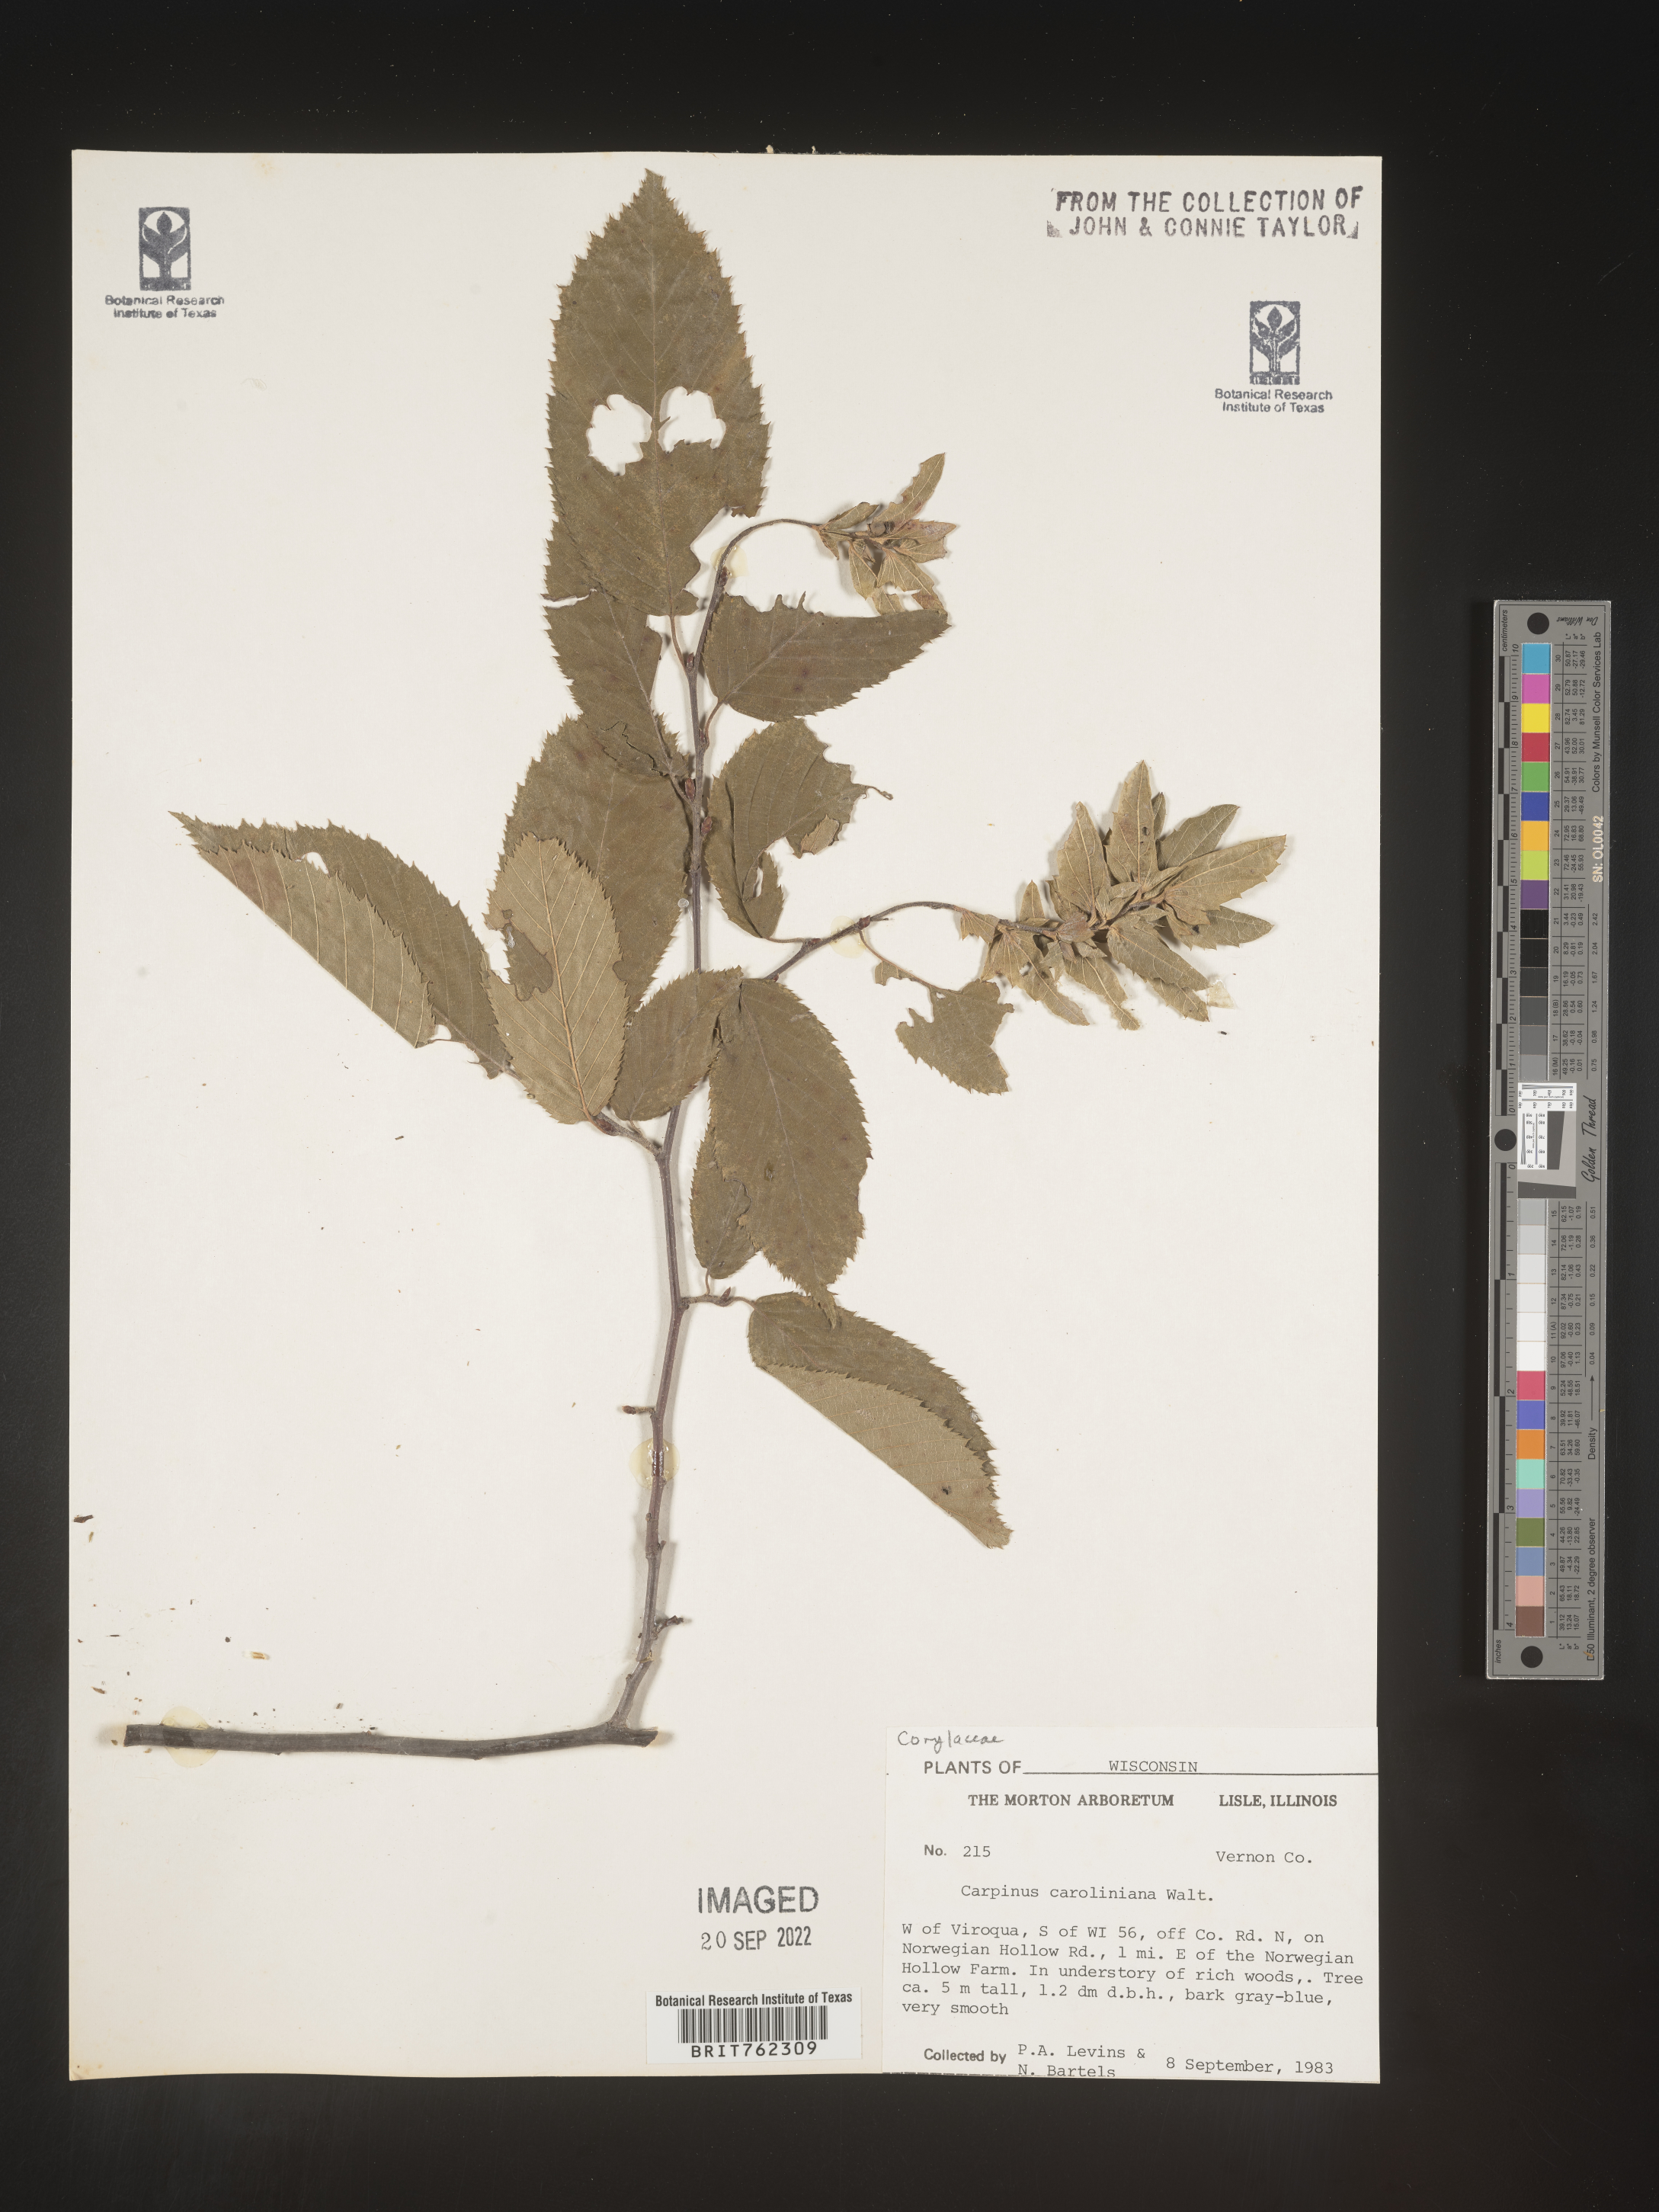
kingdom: Plantae
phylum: Tracheophyta
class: Magnoliopsida
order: Fagales
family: Betulaceae
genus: Carpinus
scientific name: Carpinus caroliniana
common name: American hornbeam
